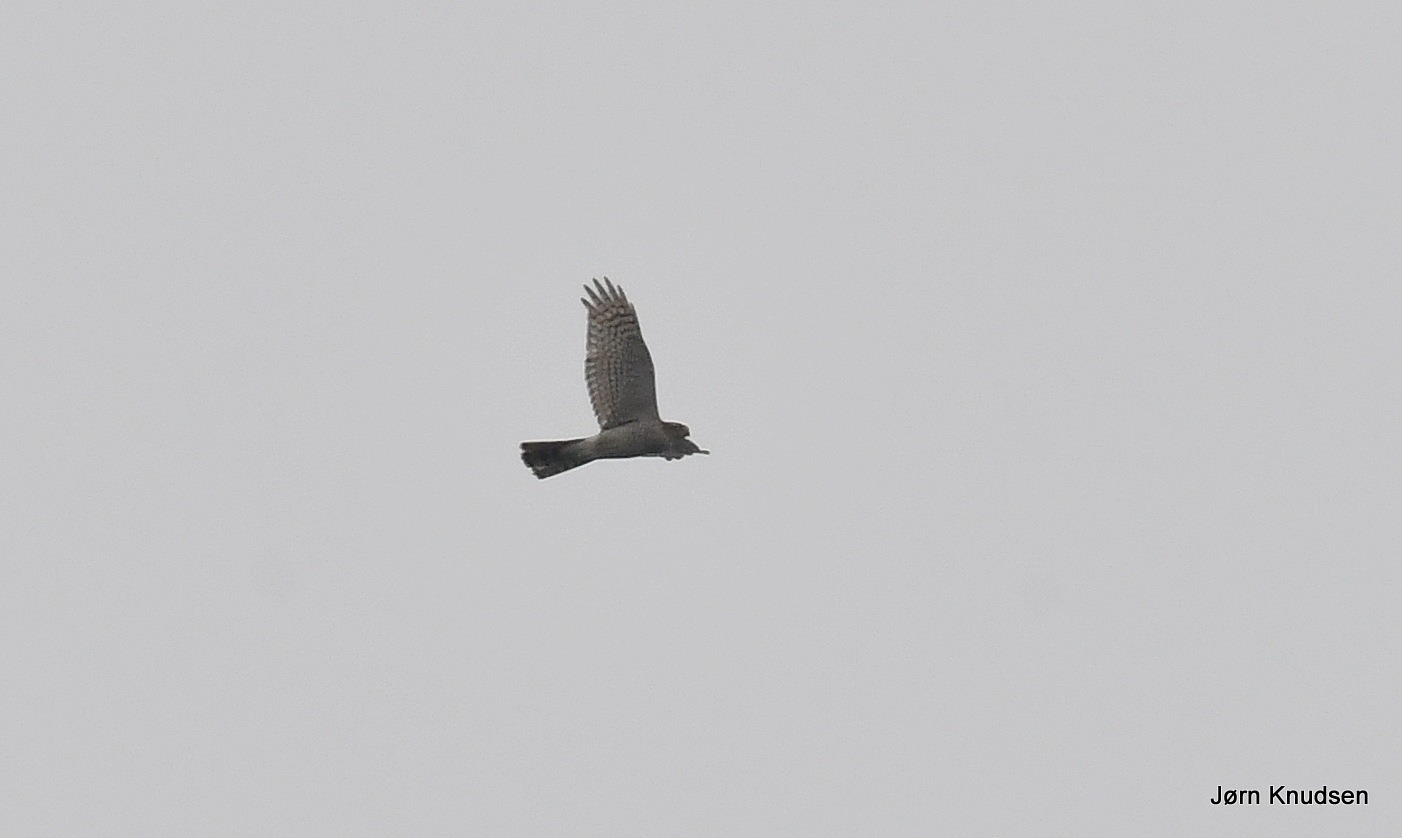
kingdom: Animalia
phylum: Chordata
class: Aves
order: Accipitriformes
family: Accipitridae
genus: Accipiter
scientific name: Accipiter nisus
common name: Spurvehøg
